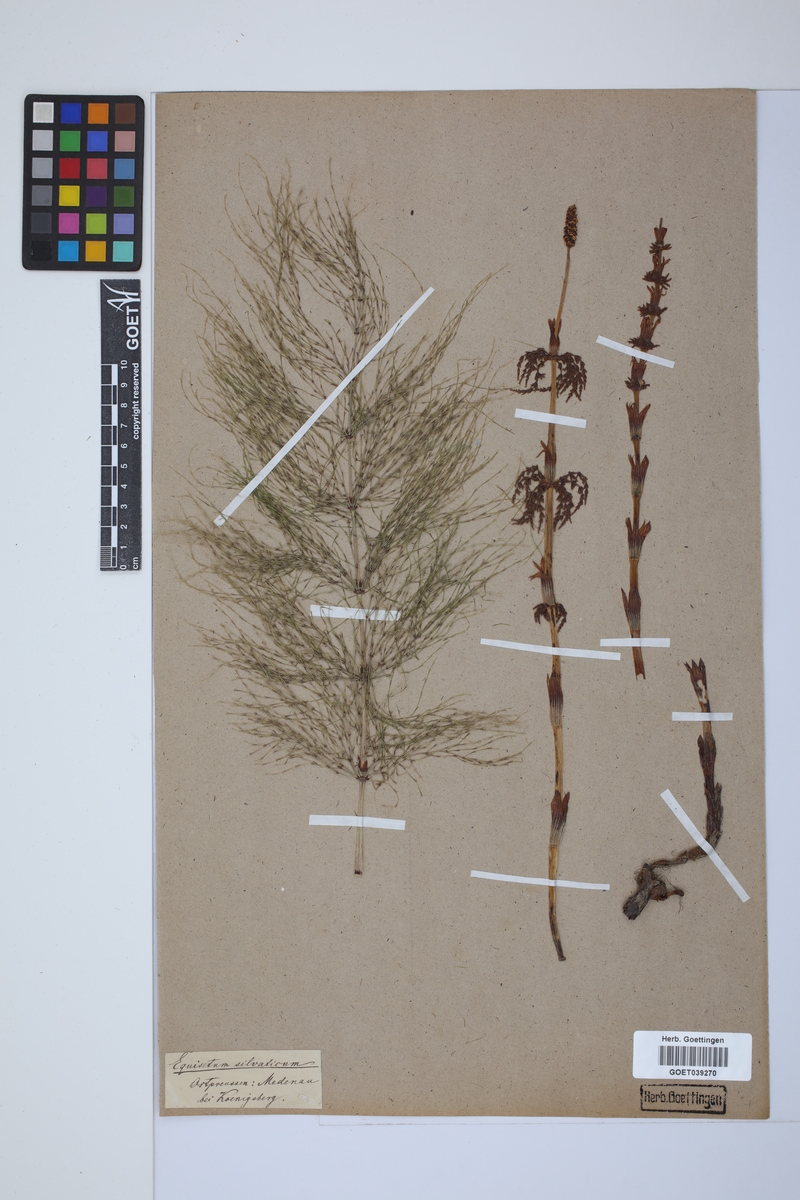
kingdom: Plantae
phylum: Tracheophyta
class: Polypodiopsida
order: Equisetales
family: Equisetaceae
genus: Equisetum
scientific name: Equisetum sylvaticum
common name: Wood horsetail
